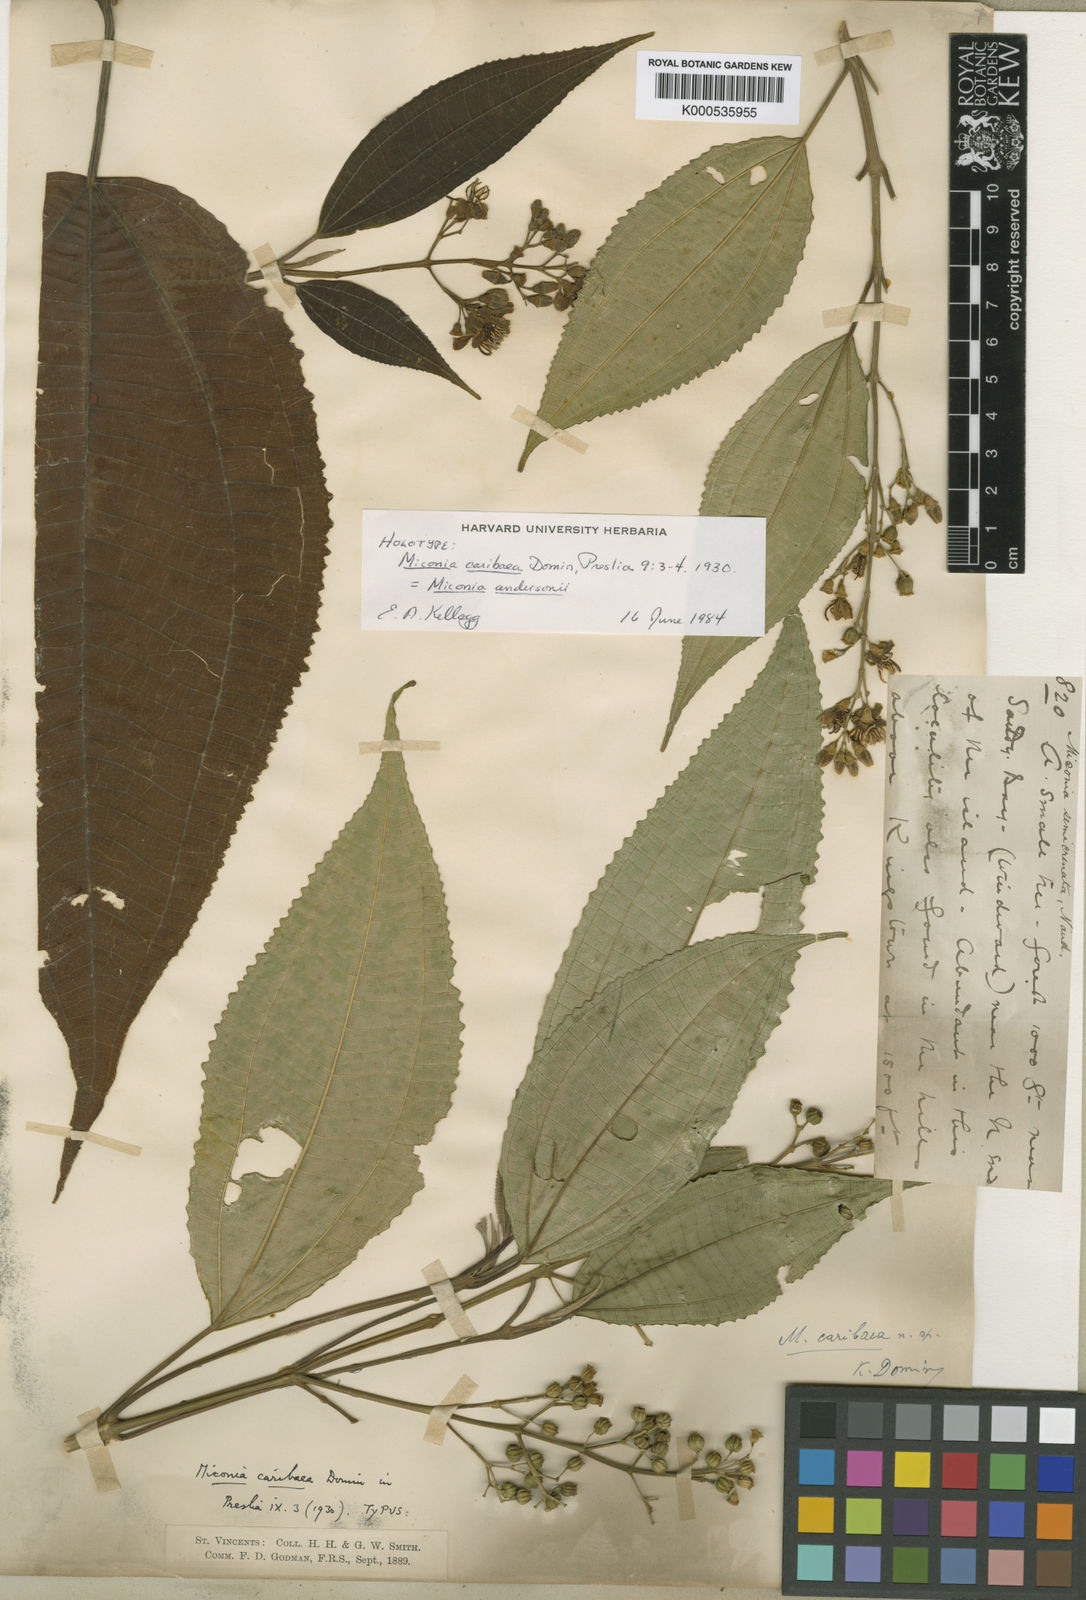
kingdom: Plantae
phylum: Tracheophyta
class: Magnoliopsida
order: Myrtales
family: Melastomataceae
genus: Miconia
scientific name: Miconia andersonii
